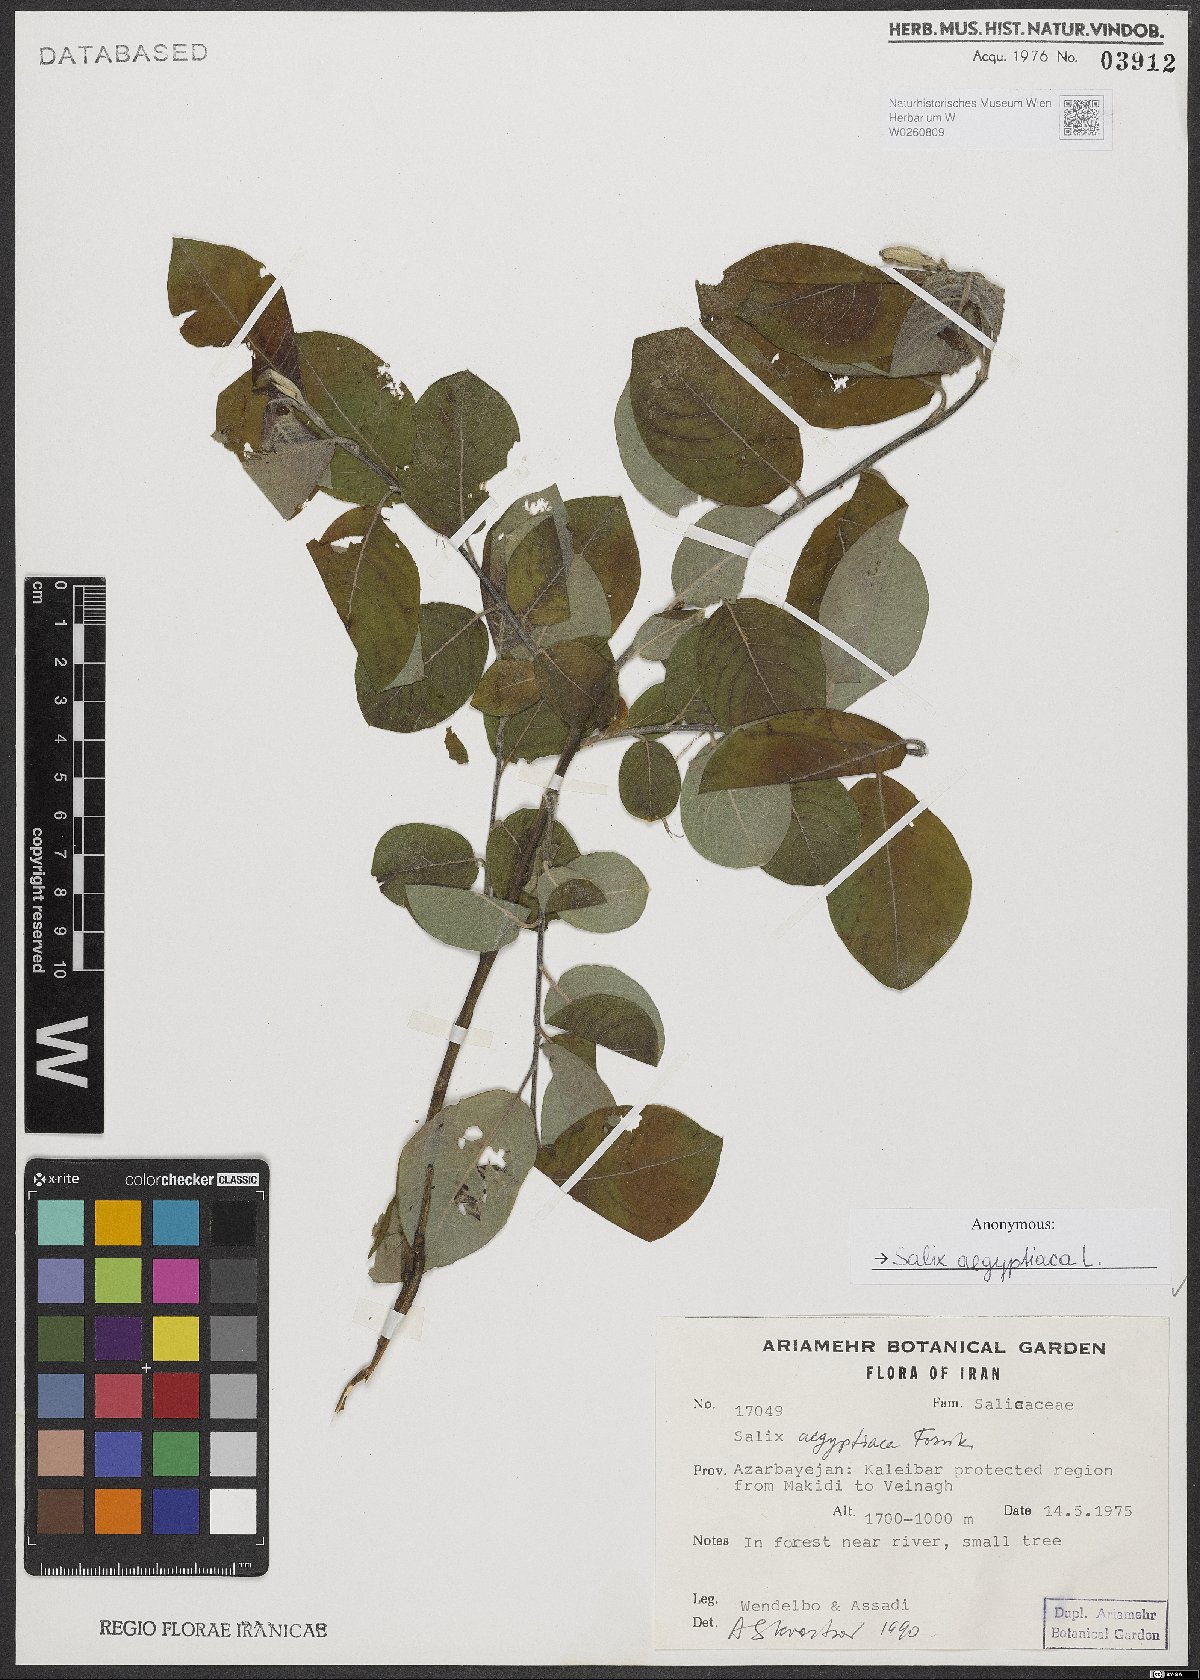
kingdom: Plantae
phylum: Tracheophyta
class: Magnoliopsida
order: Malpighiales
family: Salicaceae
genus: Salix
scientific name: Salix aegyptiaca
